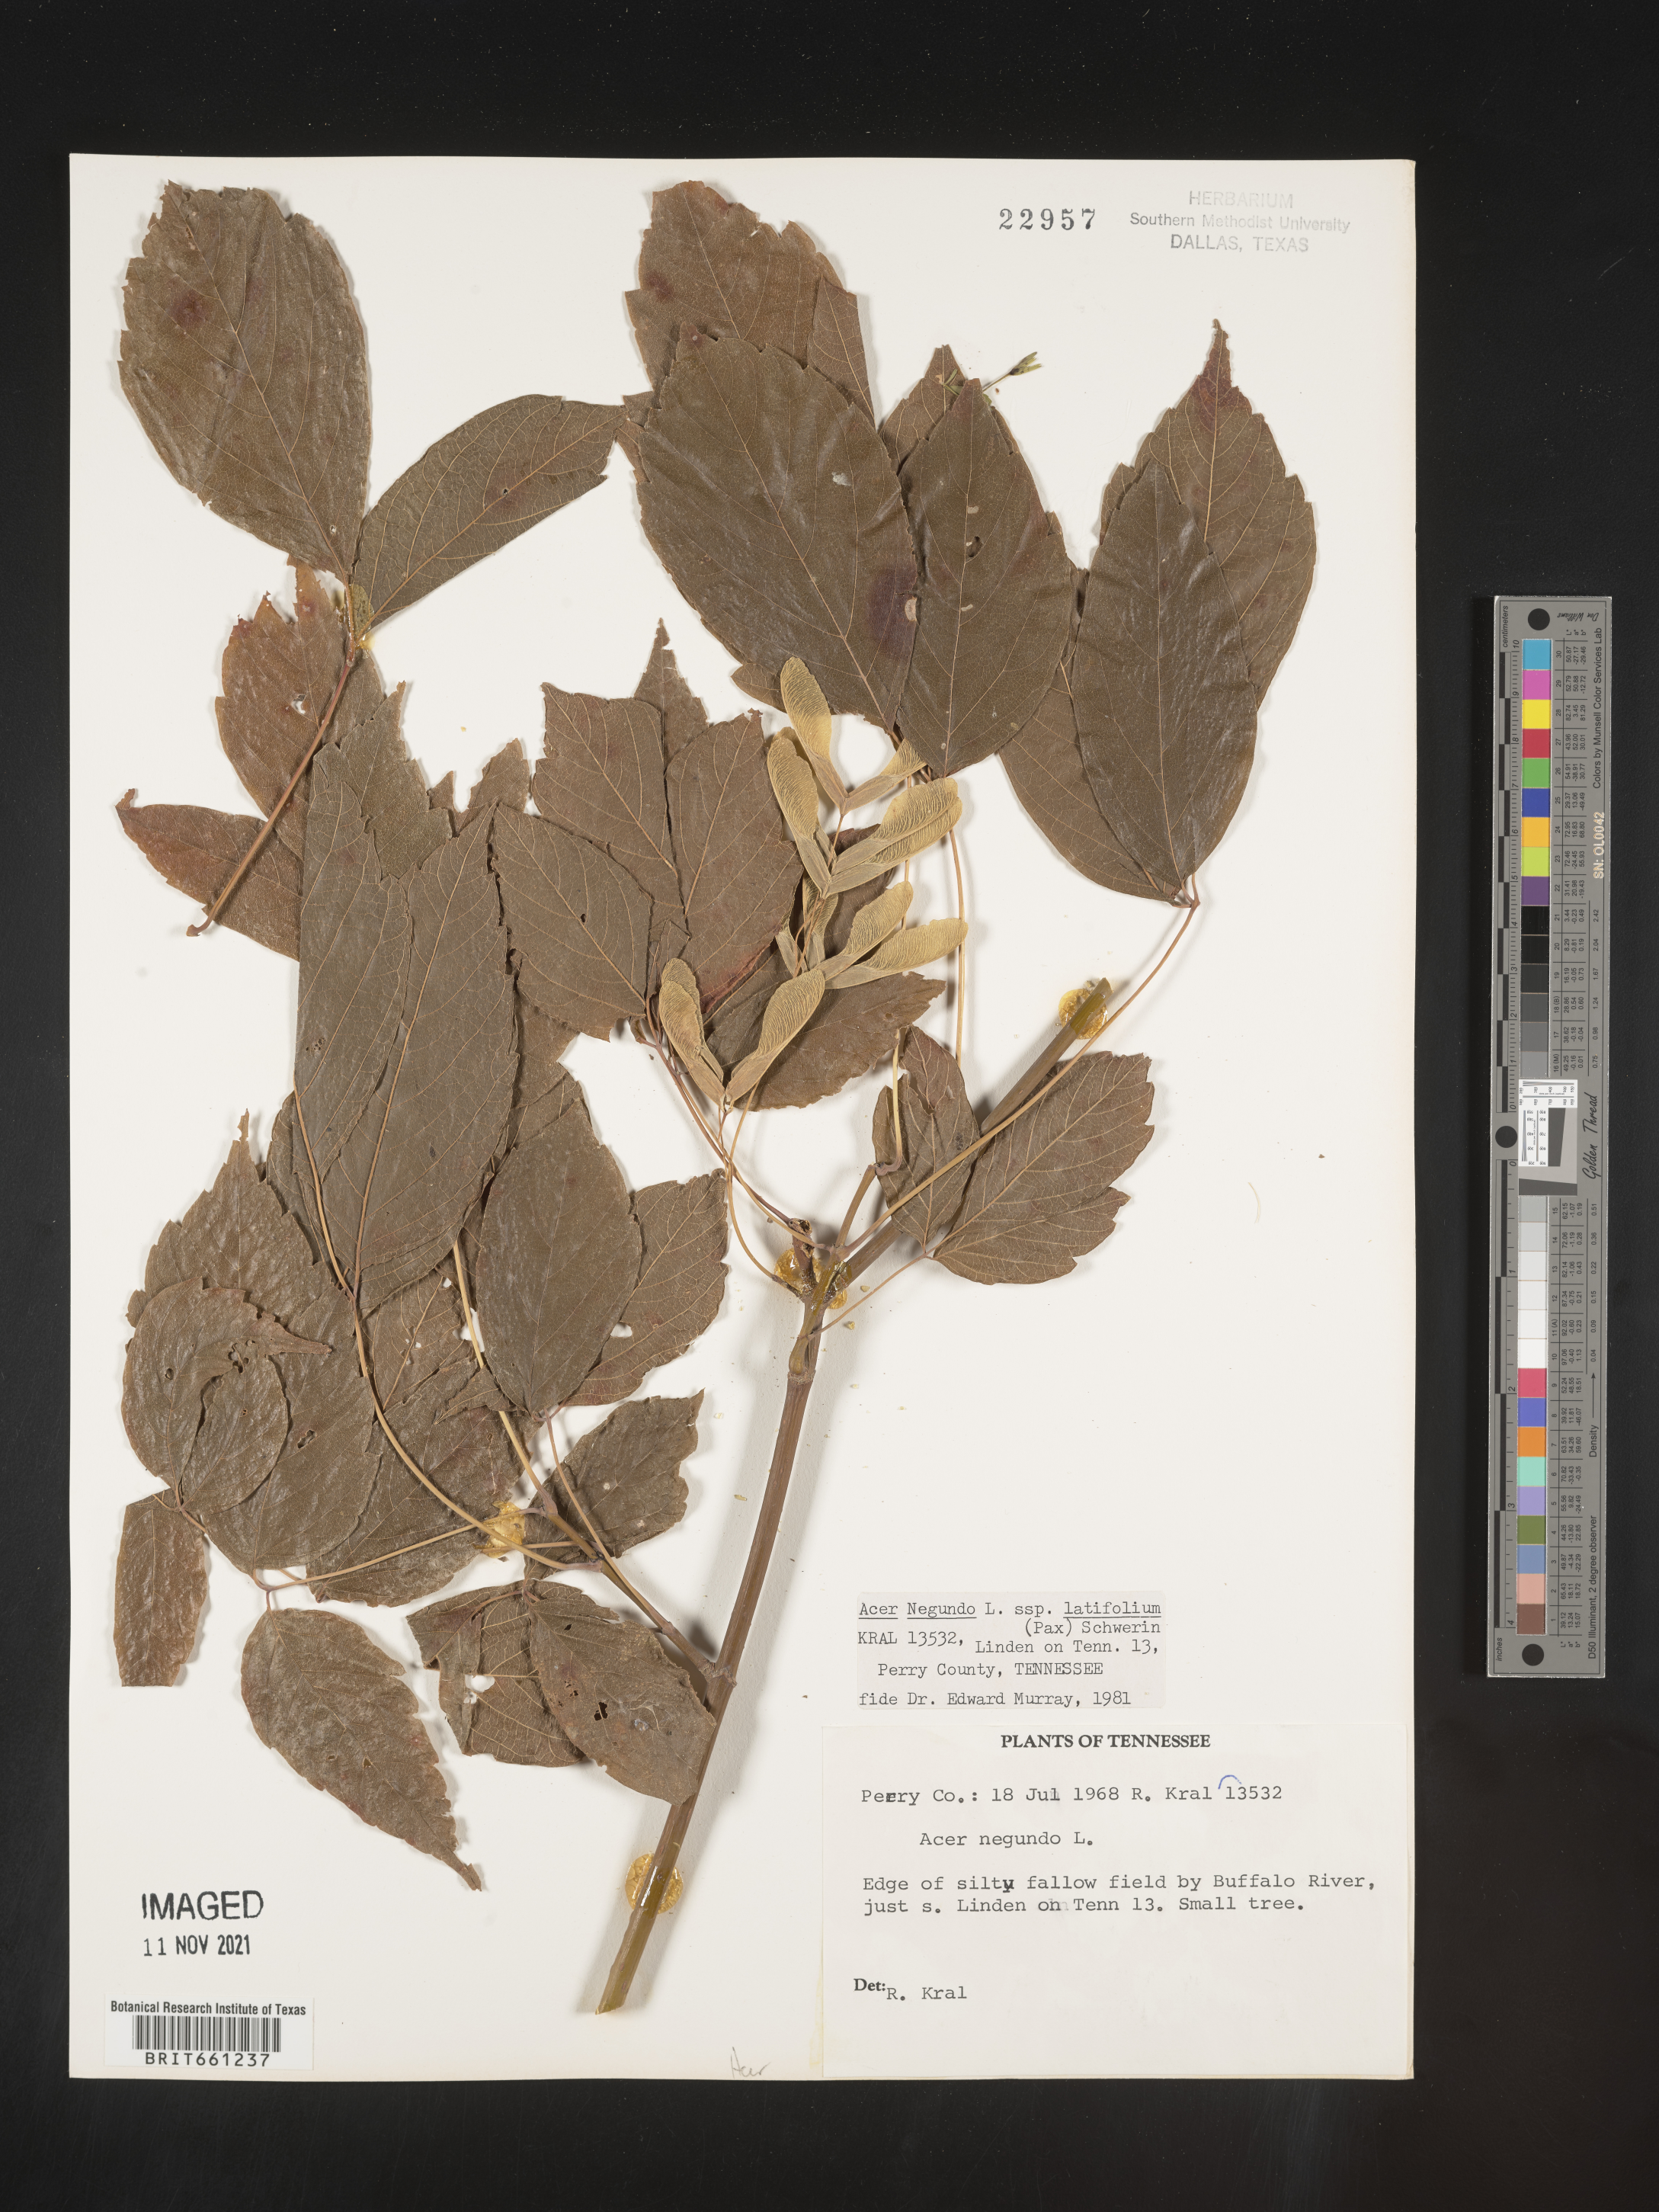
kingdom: Plantae
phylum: Tracheophyta
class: Magnoliopsida
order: Sapindales
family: Sapindaceae
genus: Acer
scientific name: Acer negundo
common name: Ashleaf maple
